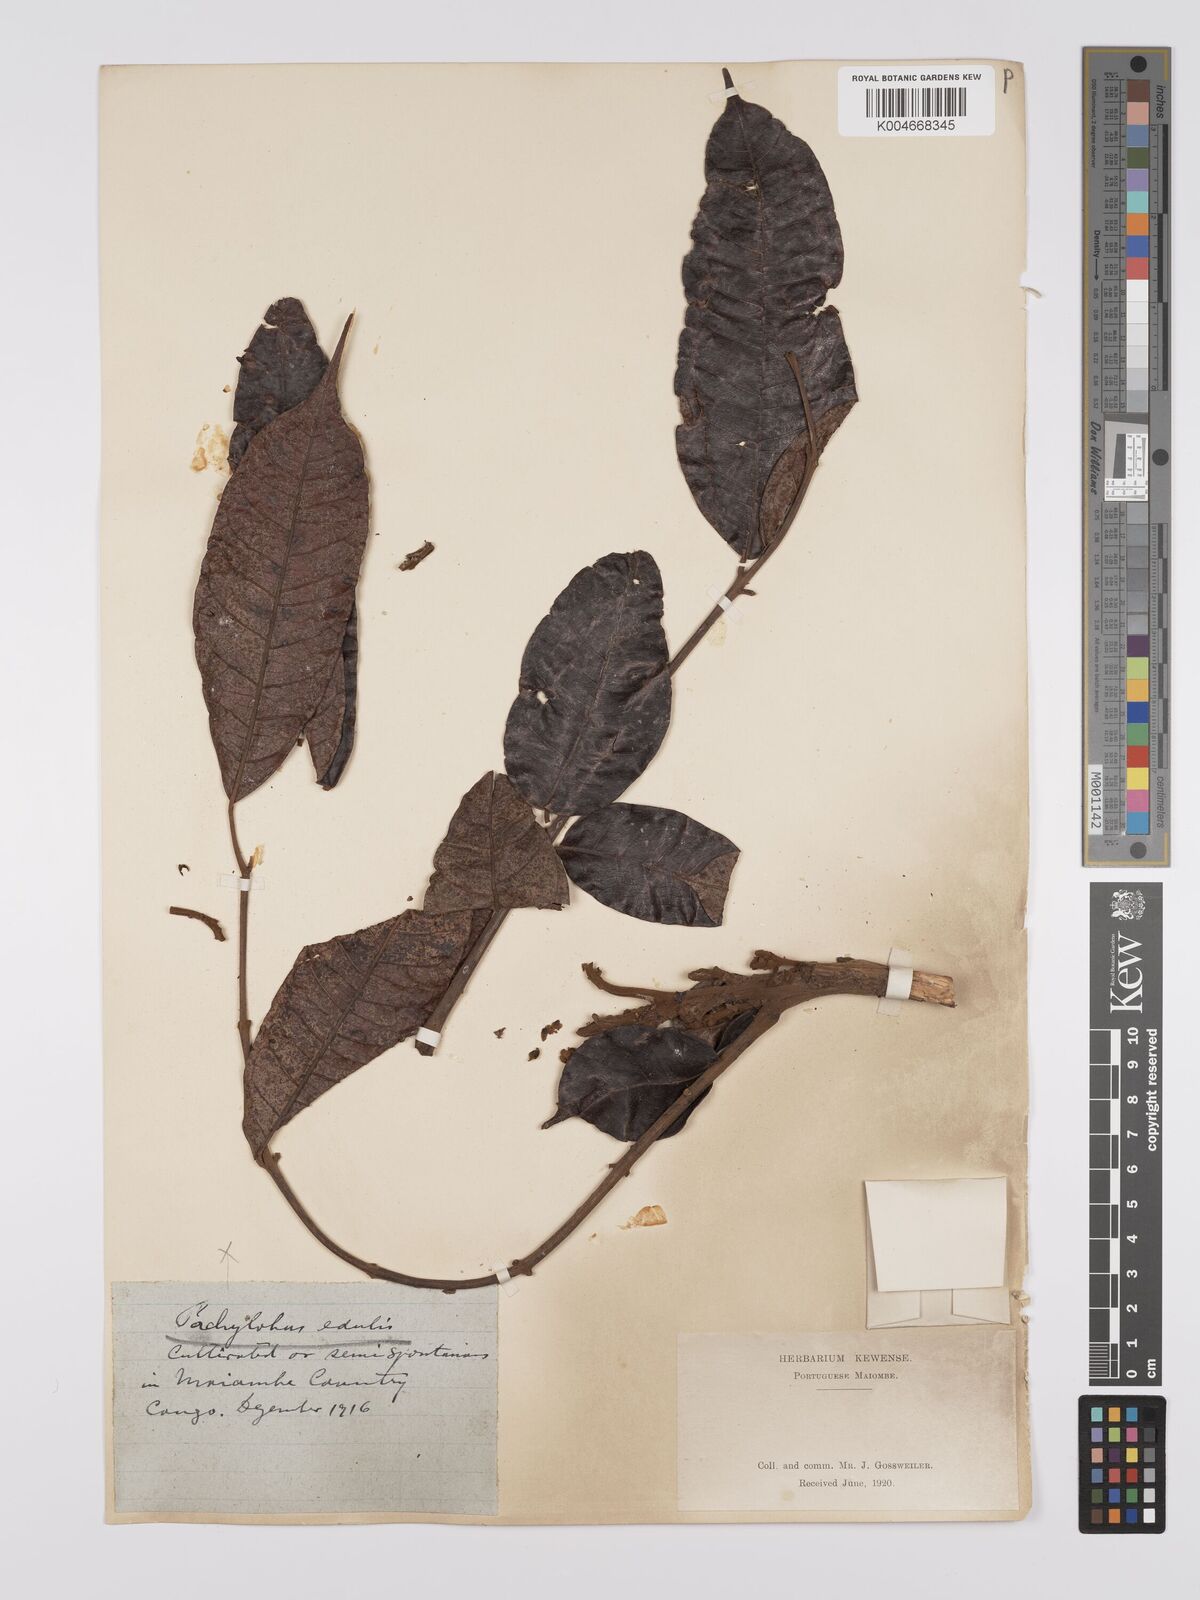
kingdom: Plantae
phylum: Tracheophyta
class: Magnoliopsida
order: Sapindales
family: Burseraceae
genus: Pachylobus
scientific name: Pachylobus edulis
